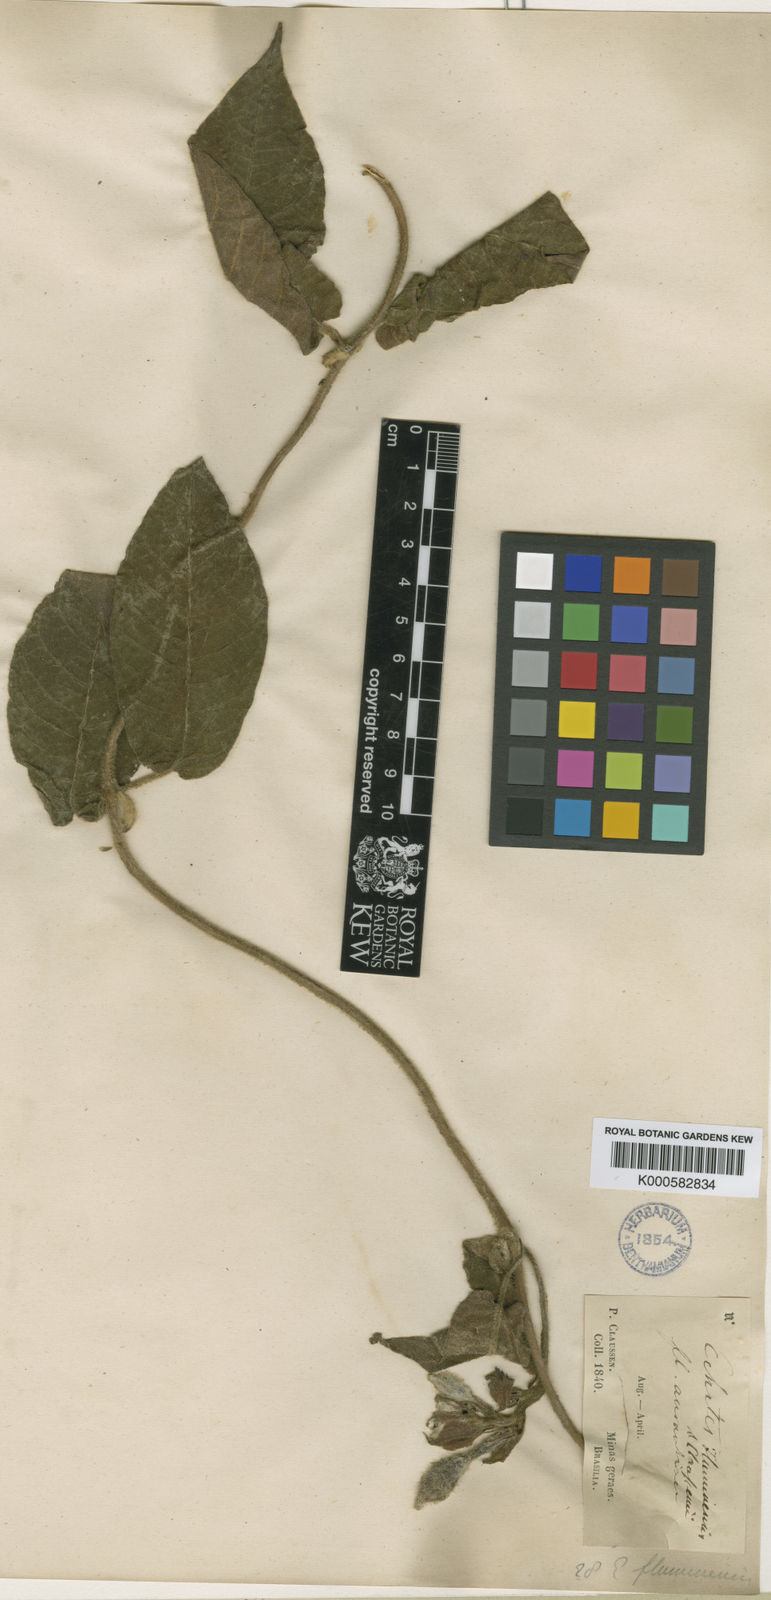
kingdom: Plantae
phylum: Tracheophyta
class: Magnoliopsida
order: Gentianales
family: Apocynaceae
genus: Mandevilla
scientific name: Mandevilla hirsuta
